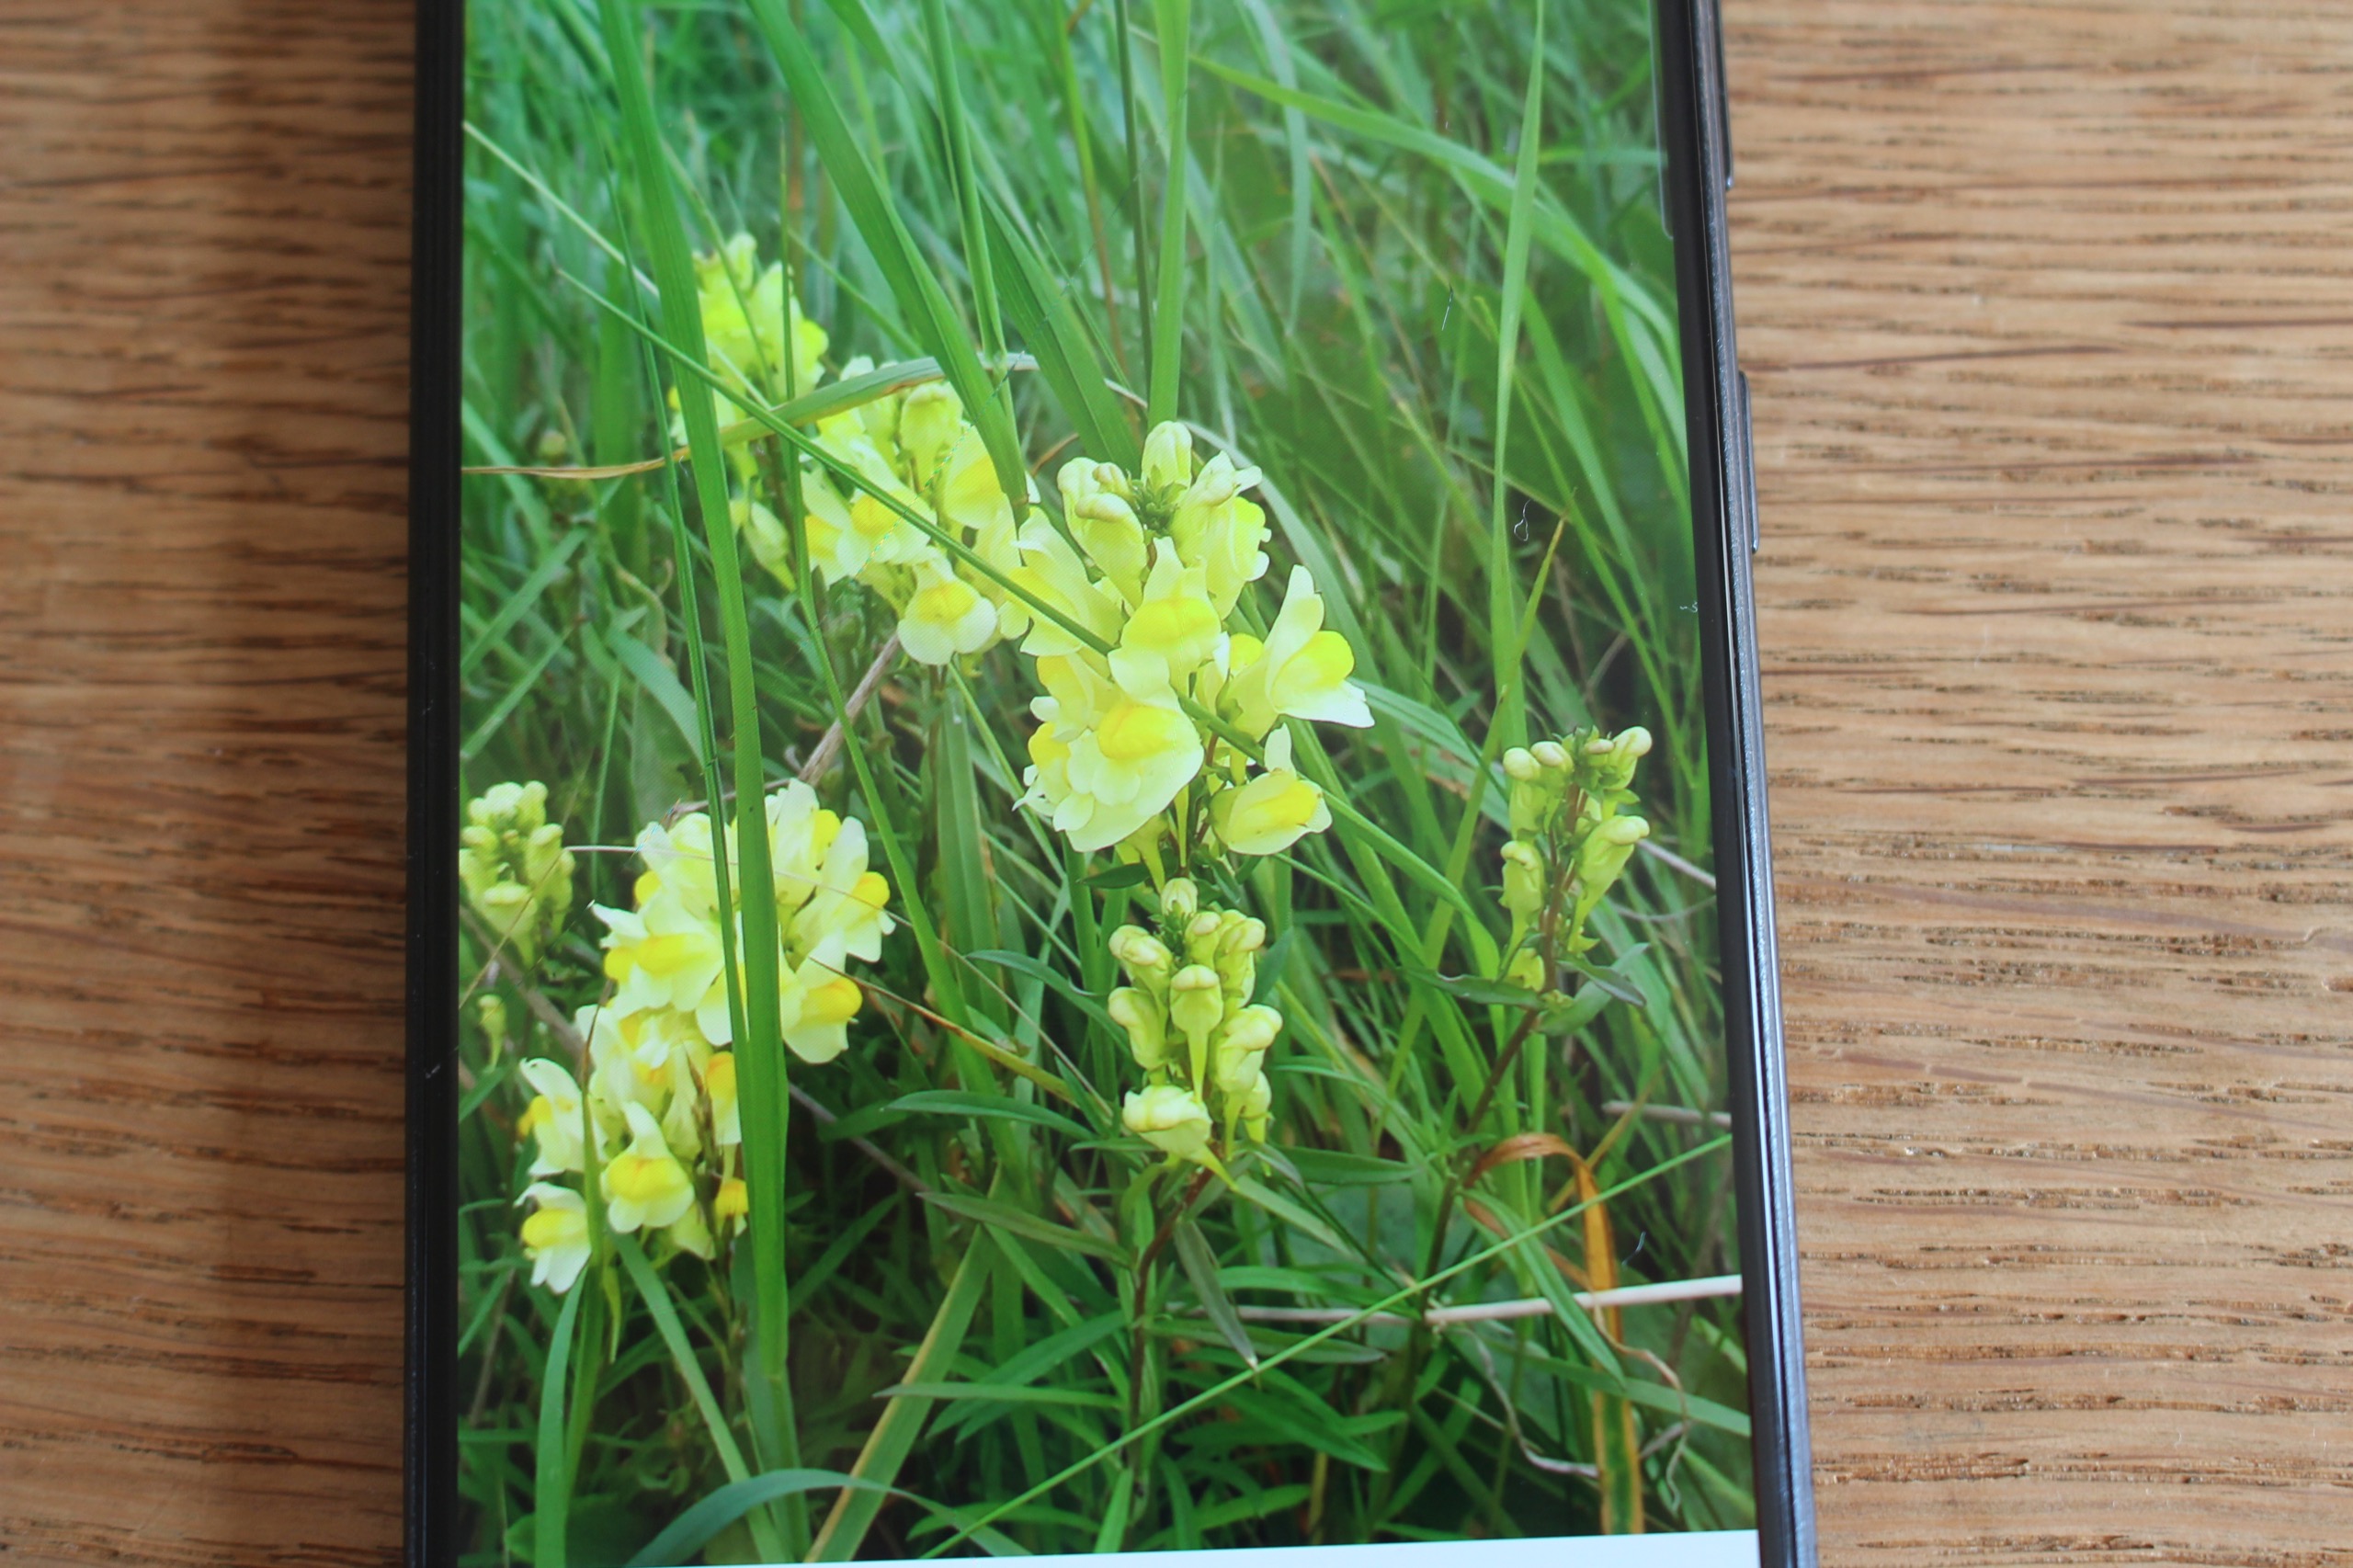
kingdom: Plantae
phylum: Tracheophyta
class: Magnoliopsida
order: Lamiales
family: Plantaginaceae
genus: Linaria
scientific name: Linaria vulgaris
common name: Almindelig torskemund
